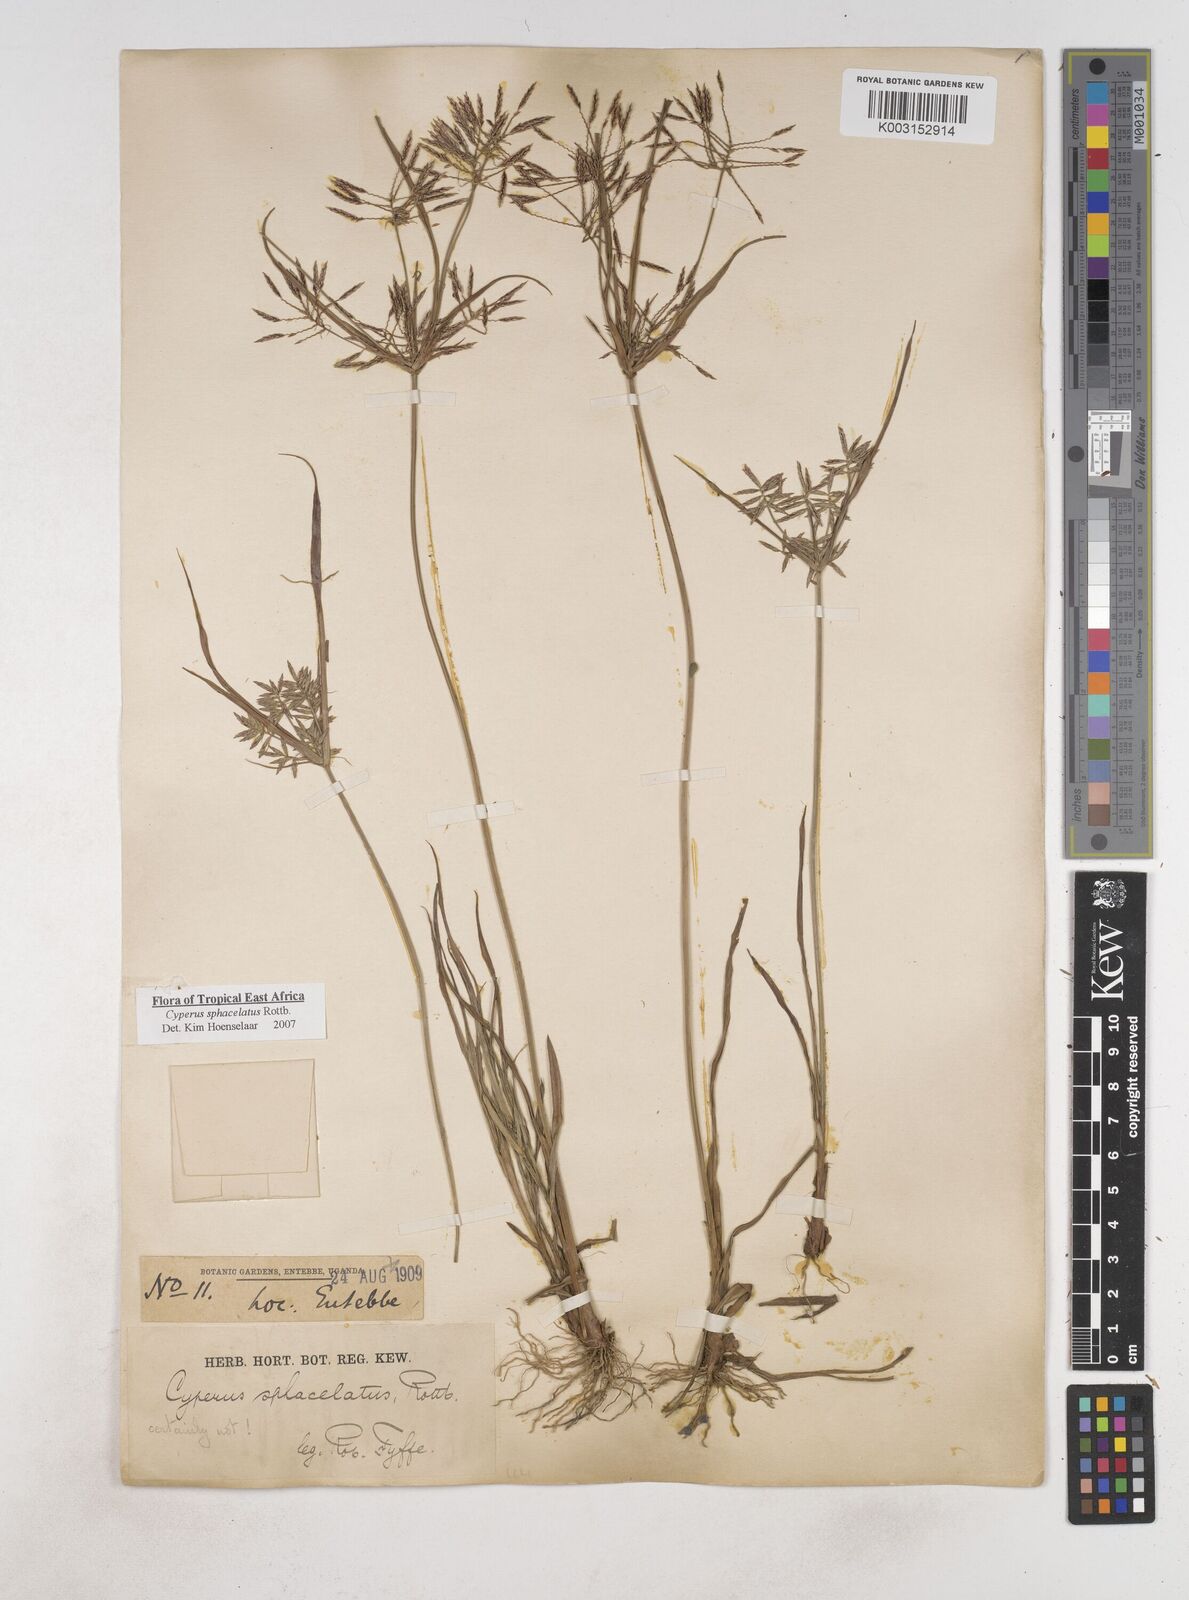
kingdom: Plantae
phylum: Tracheophyta
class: Liliopsida
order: Poales
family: Cyperaceae
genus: Cyperus
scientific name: Cyperus sphacelatus
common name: Roadside flatsedge
